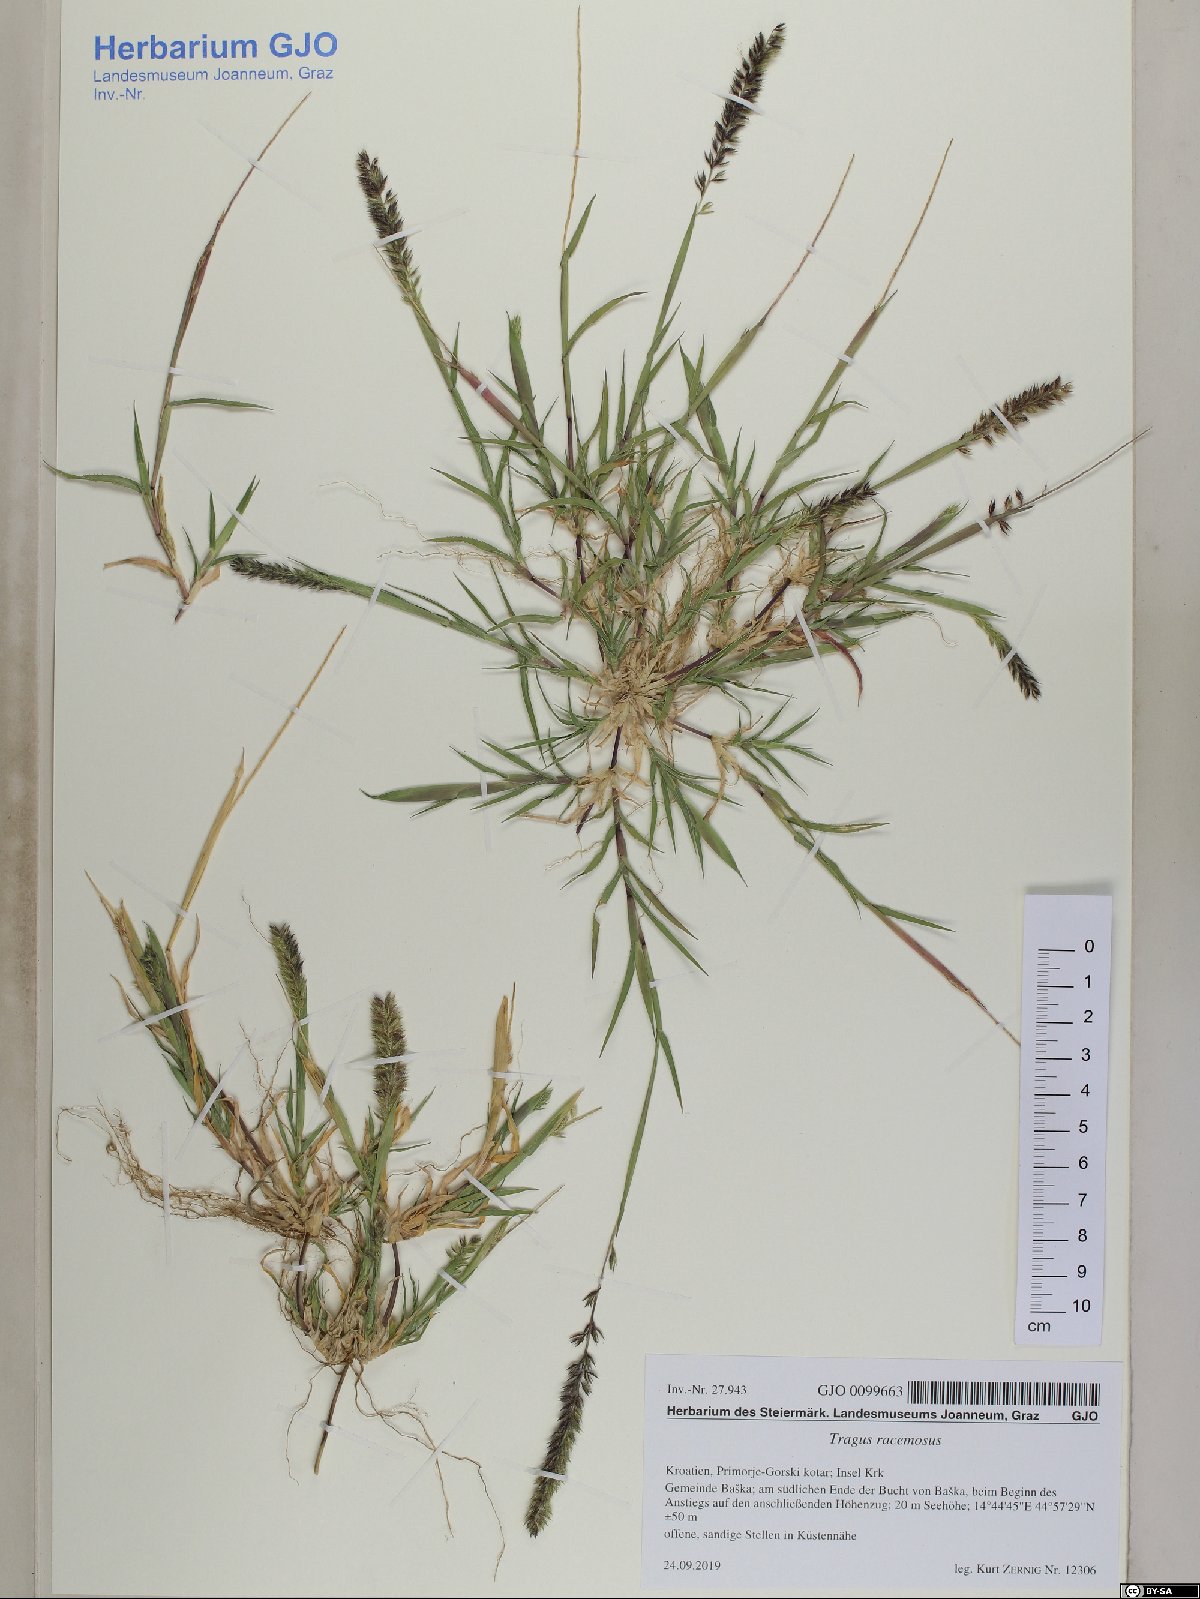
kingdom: Plantae
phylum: Tracheophyta
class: Liliopsida
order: Poales
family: Poaceae
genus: Tragus
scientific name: Tragus racemosus
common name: European bur-grass
